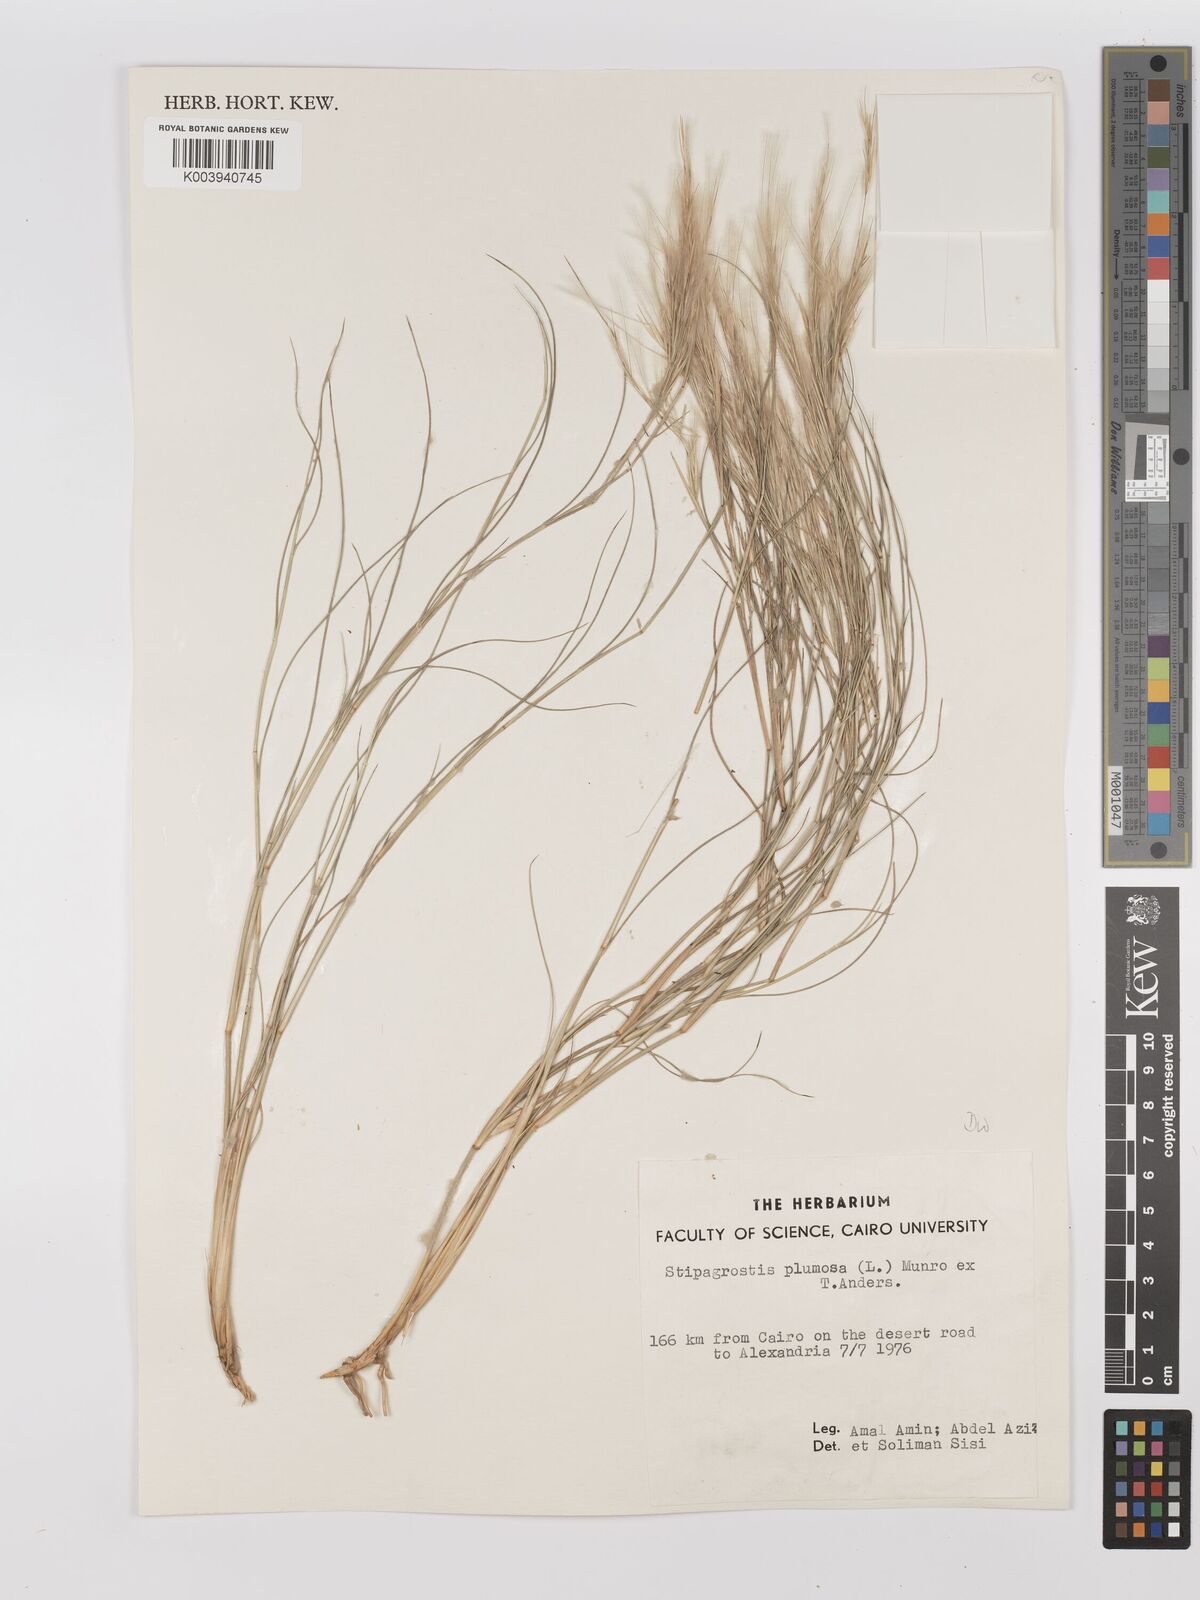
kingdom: Plantae
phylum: Tracheophyta
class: Liliopsida
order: Poales
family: Poaceae
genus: Stipagrostis
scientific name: Stipagrostis plumosa
